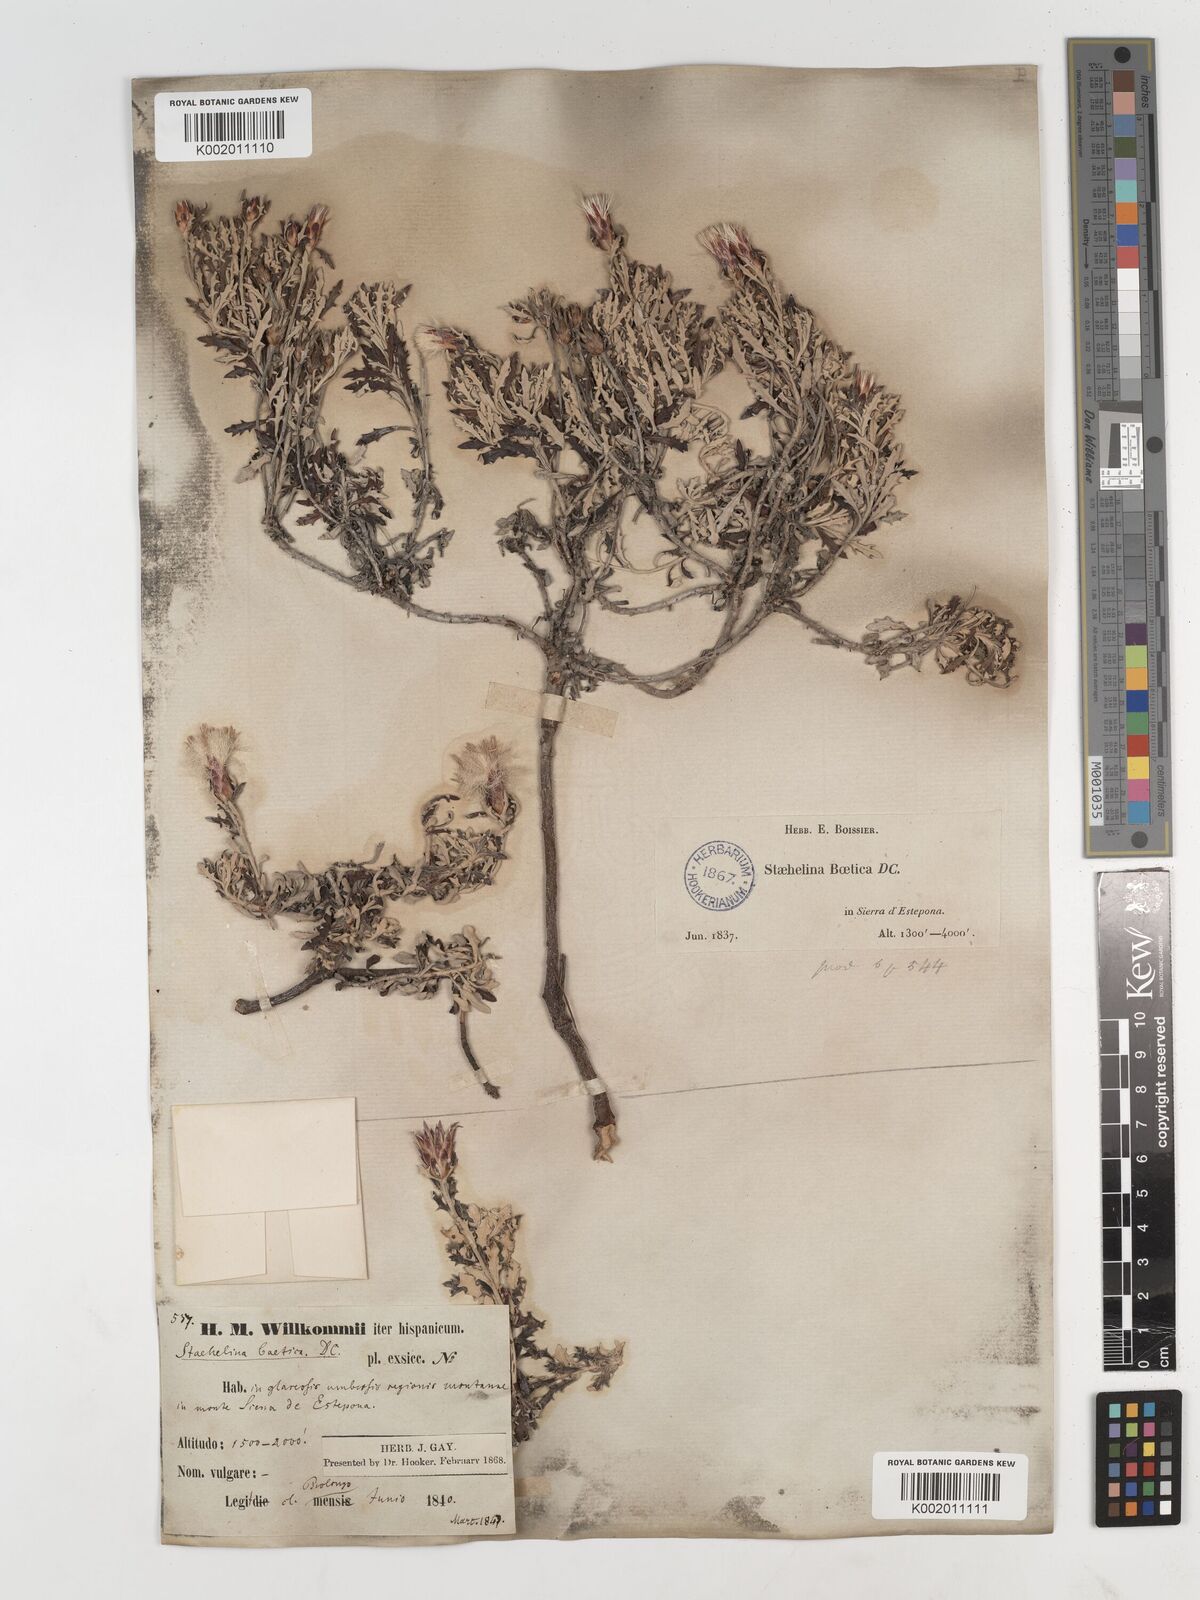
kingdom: Plantae
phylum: Tracheophyta
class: Magnoliopsida
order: Asterales
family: Asteraceae
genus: Staehelina
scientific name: Staehelina baetica
